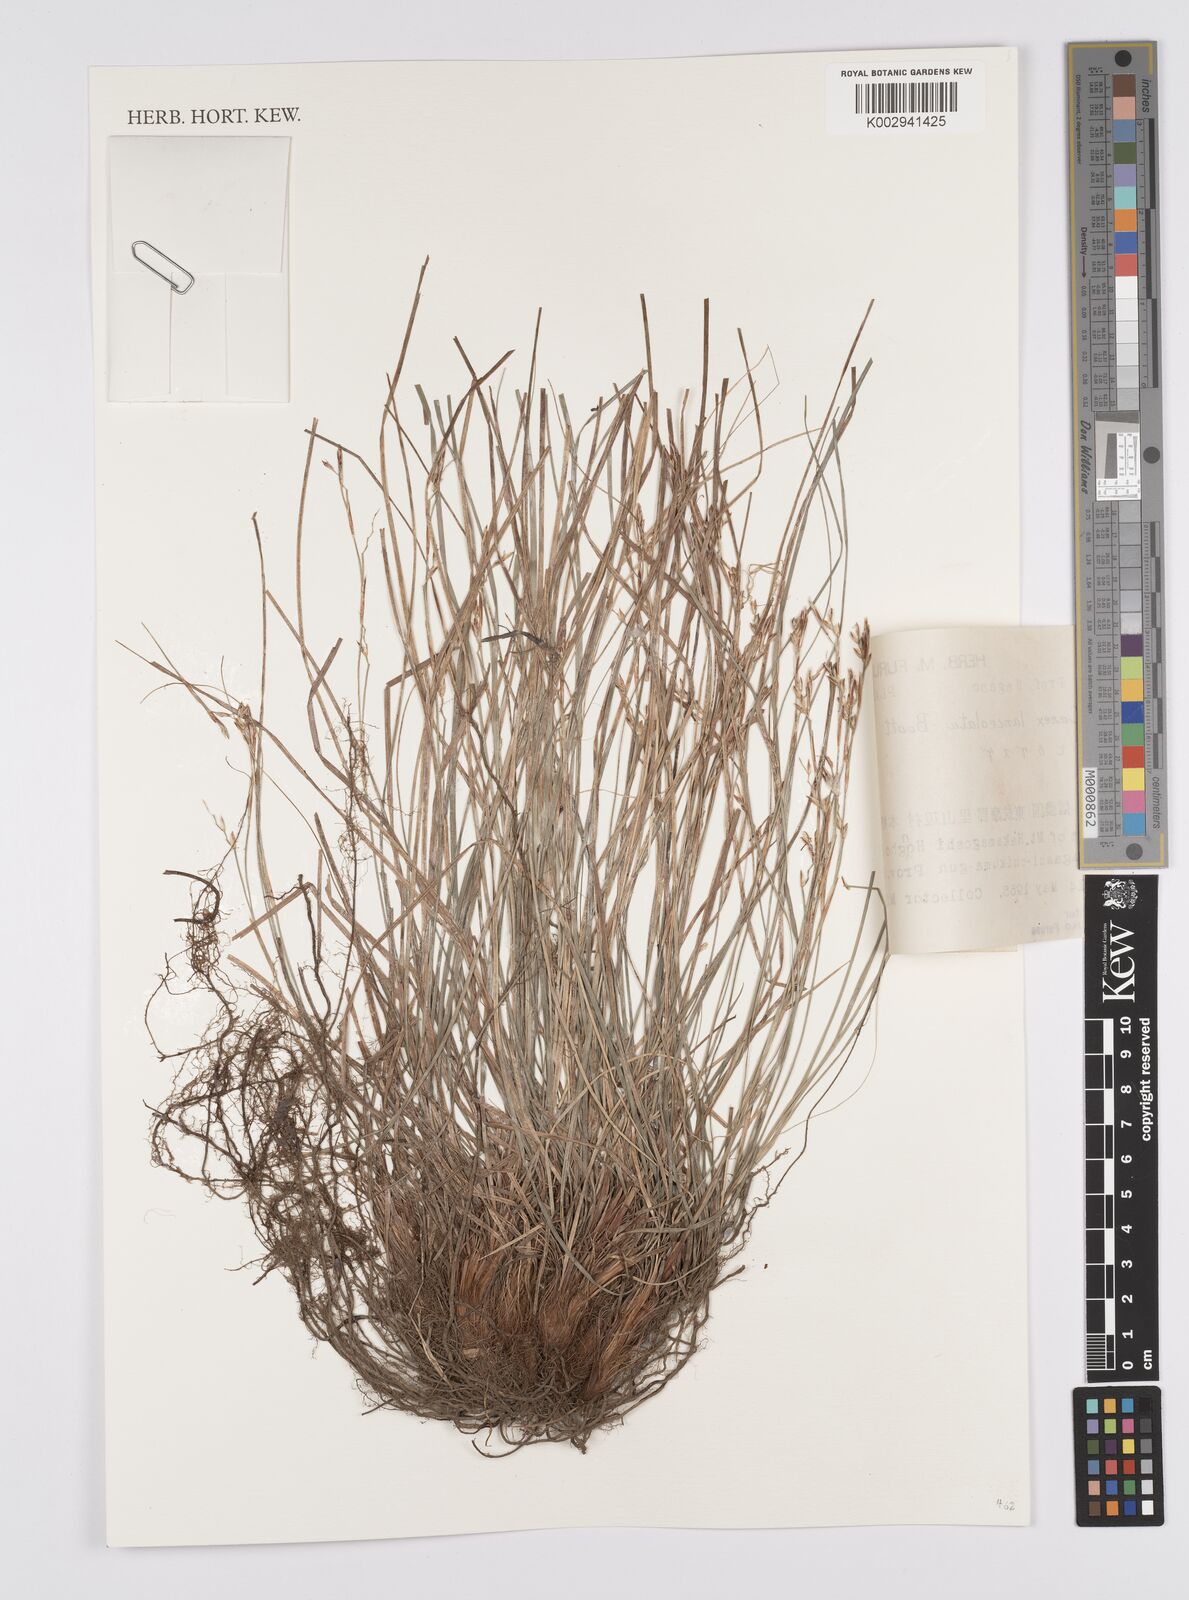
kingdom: Plantae
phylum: Tracheophyta
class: Liliopsida
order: Poales
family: Cyperaceae
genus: Carex
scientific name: Carex lanceolata
